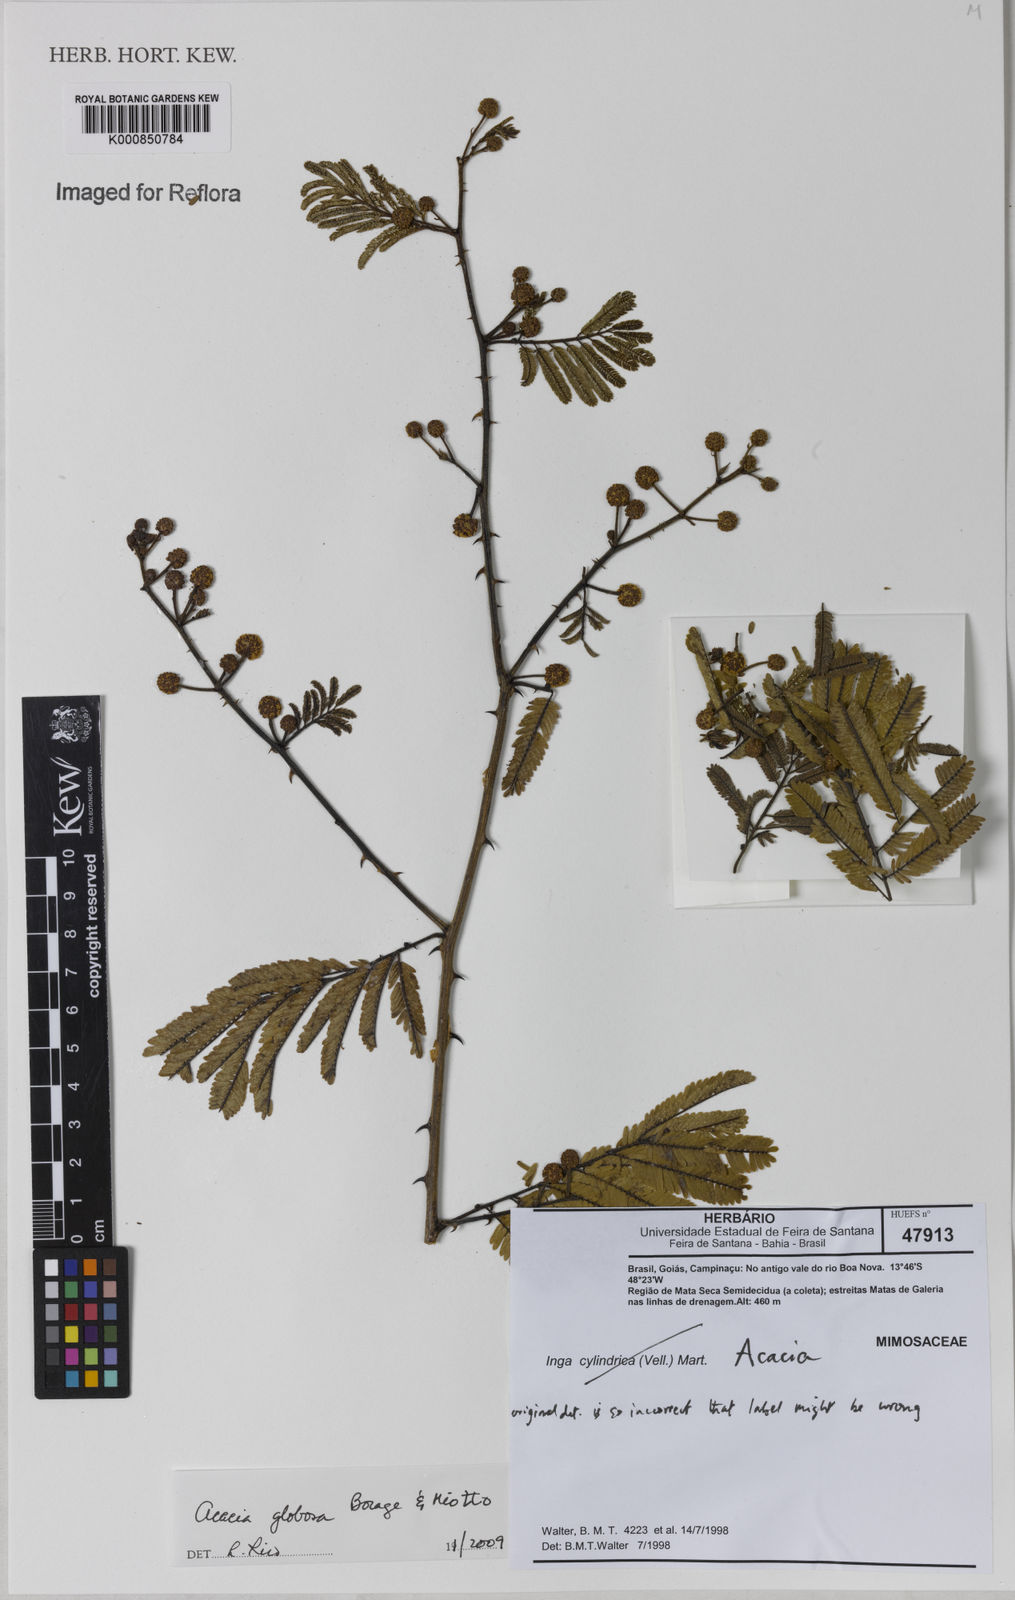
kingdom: Plantae
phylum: Tracheophyta
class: Magnoliopsida
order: Fabales
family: Fabaceae
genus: Senegalia
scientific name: Senegalia globosa
